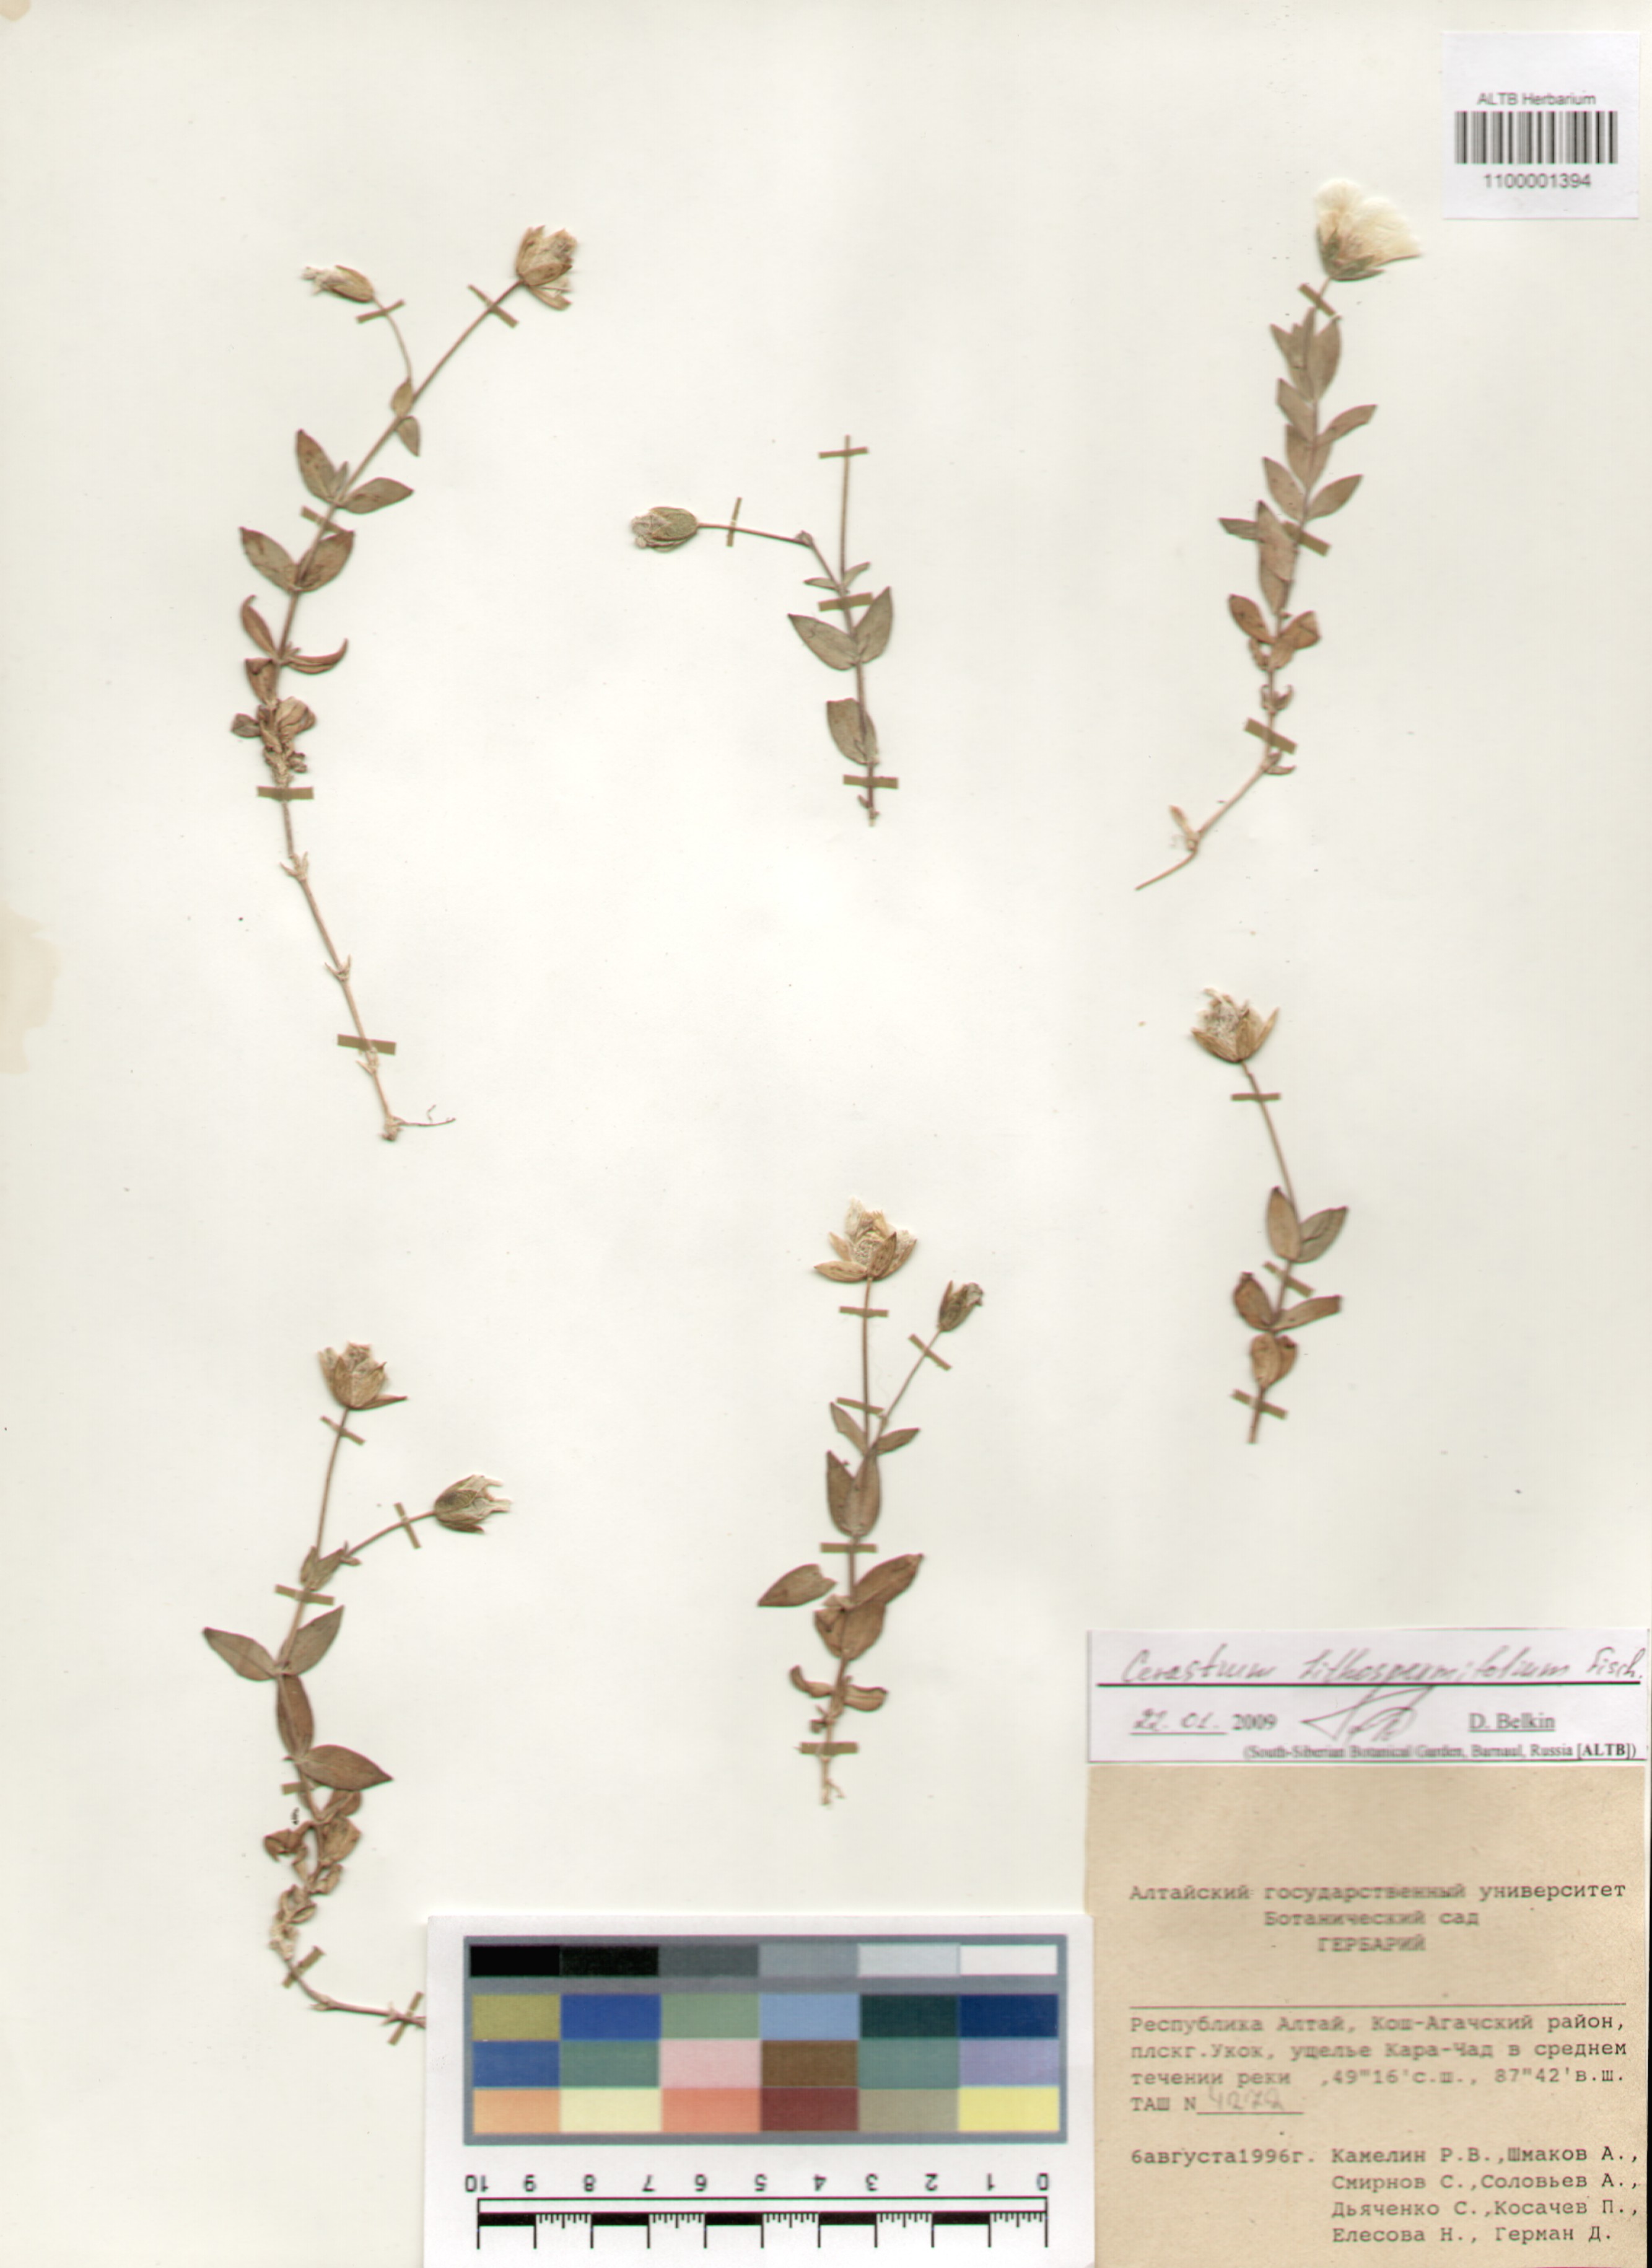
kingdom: Plantae
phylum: Tracheophyta
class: Magnoliopsida
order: Caryophyllales
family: Caryophyllaceae
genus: Cerastium
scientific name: Cerastium lithospermifolium
